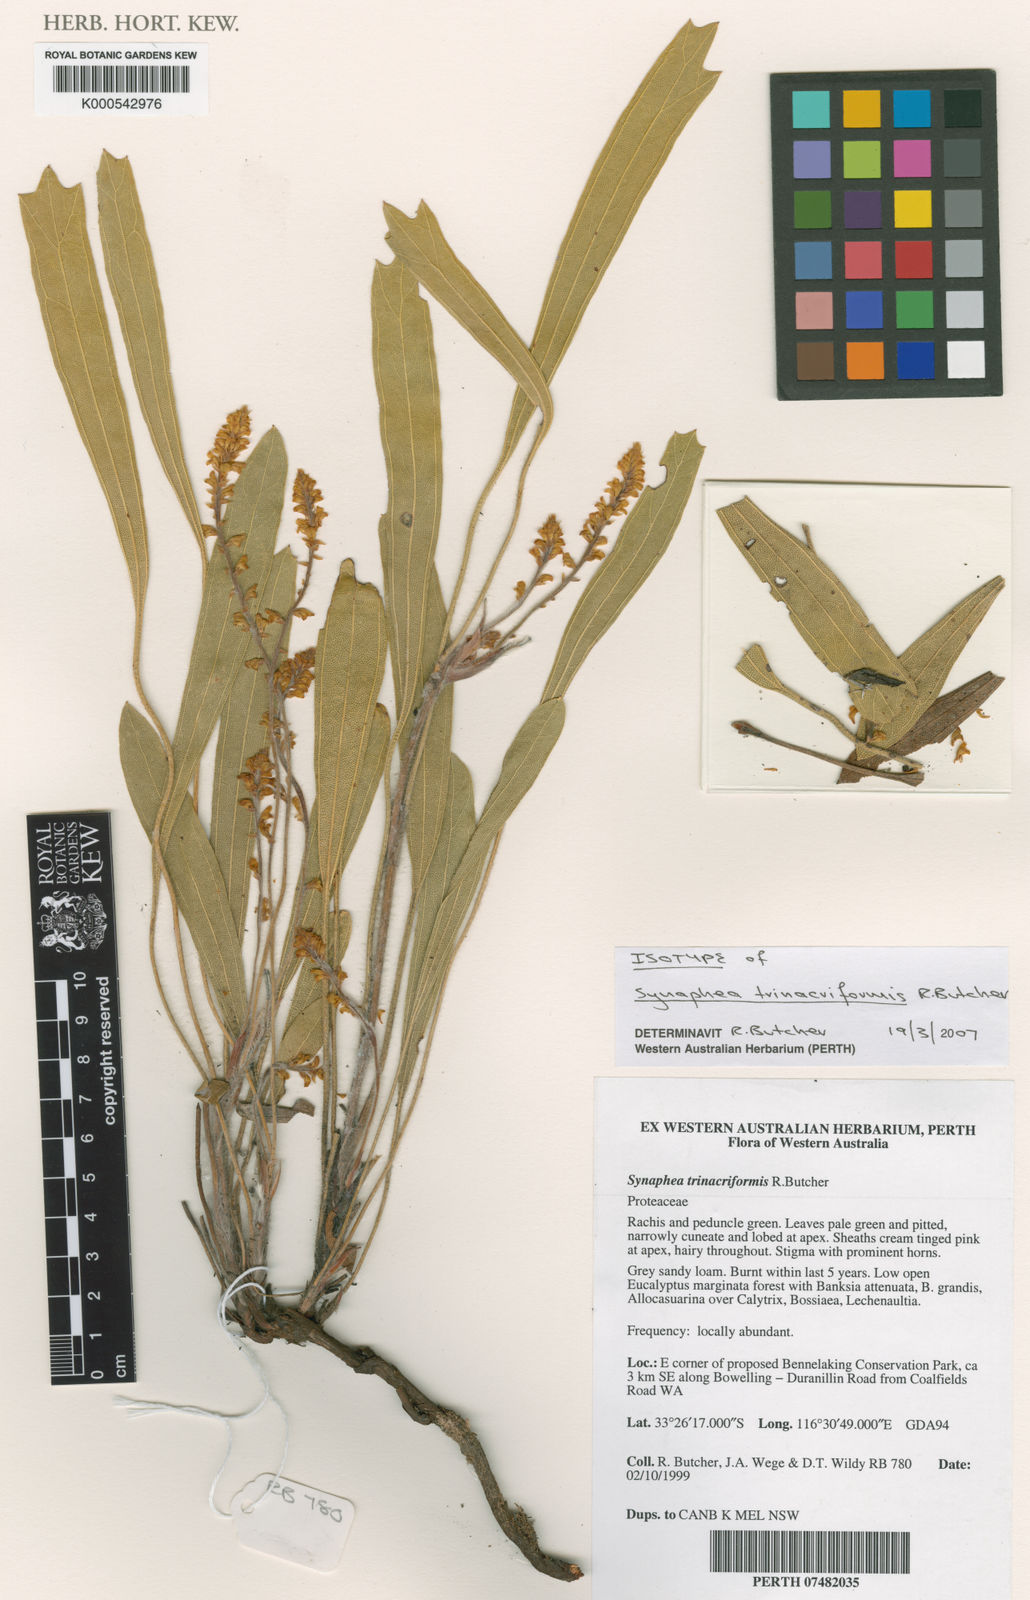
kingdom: Plantae
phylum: Tracheophyta
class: Magnoliopsida
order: Proteales
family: Proteaceae
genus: Synaphea
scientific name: Synaphea trinacriformis
